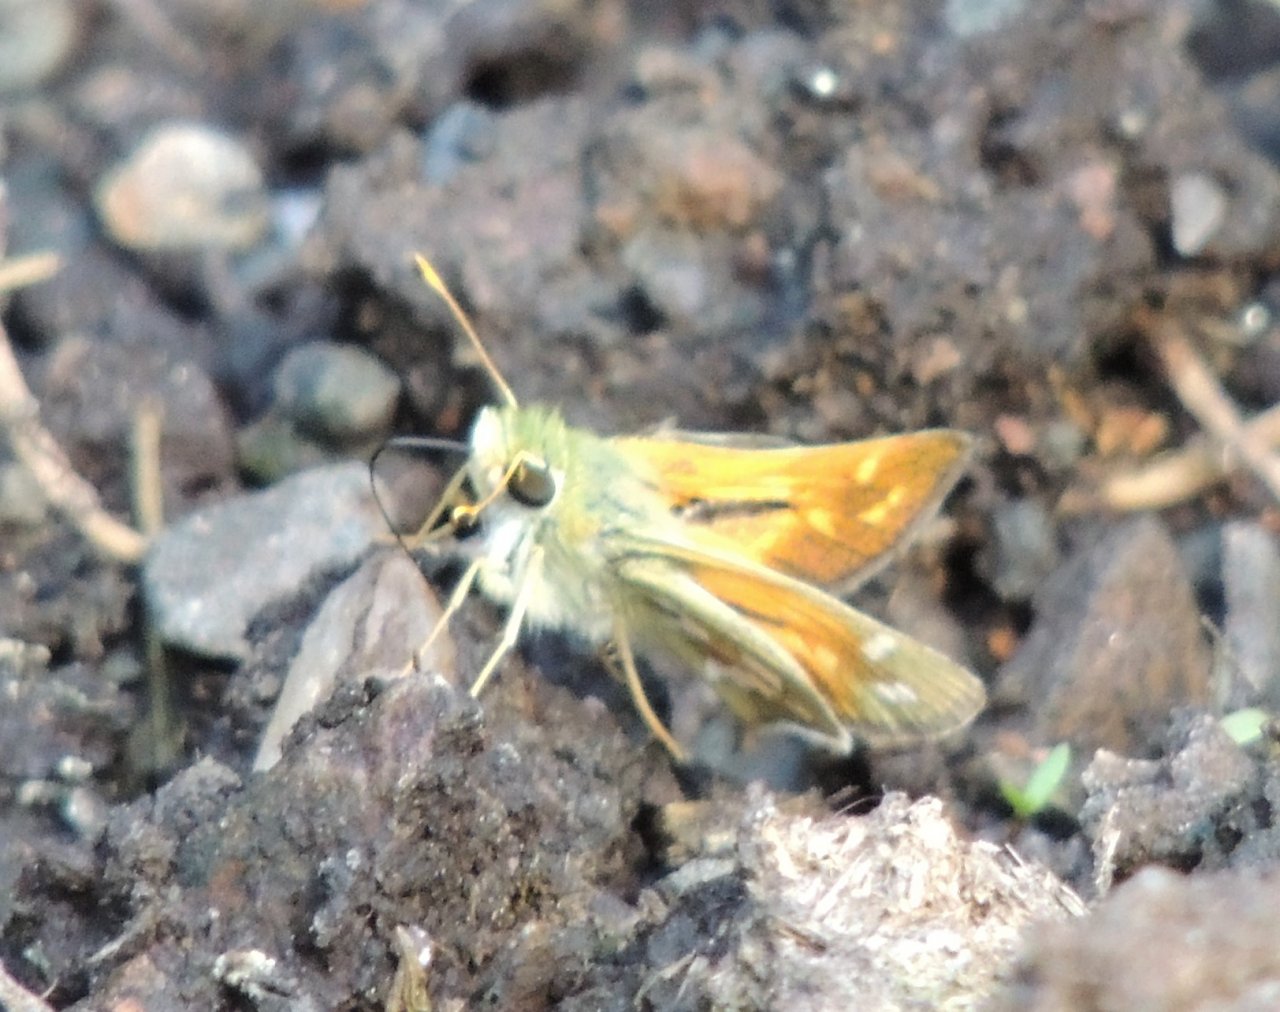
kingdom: Animalia
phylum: Arthropoda
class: Insecta
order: Lepidoptera
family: Hesperiidae
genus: Hesperia
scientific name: Hesperia comma
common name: Western Branded Skipper
